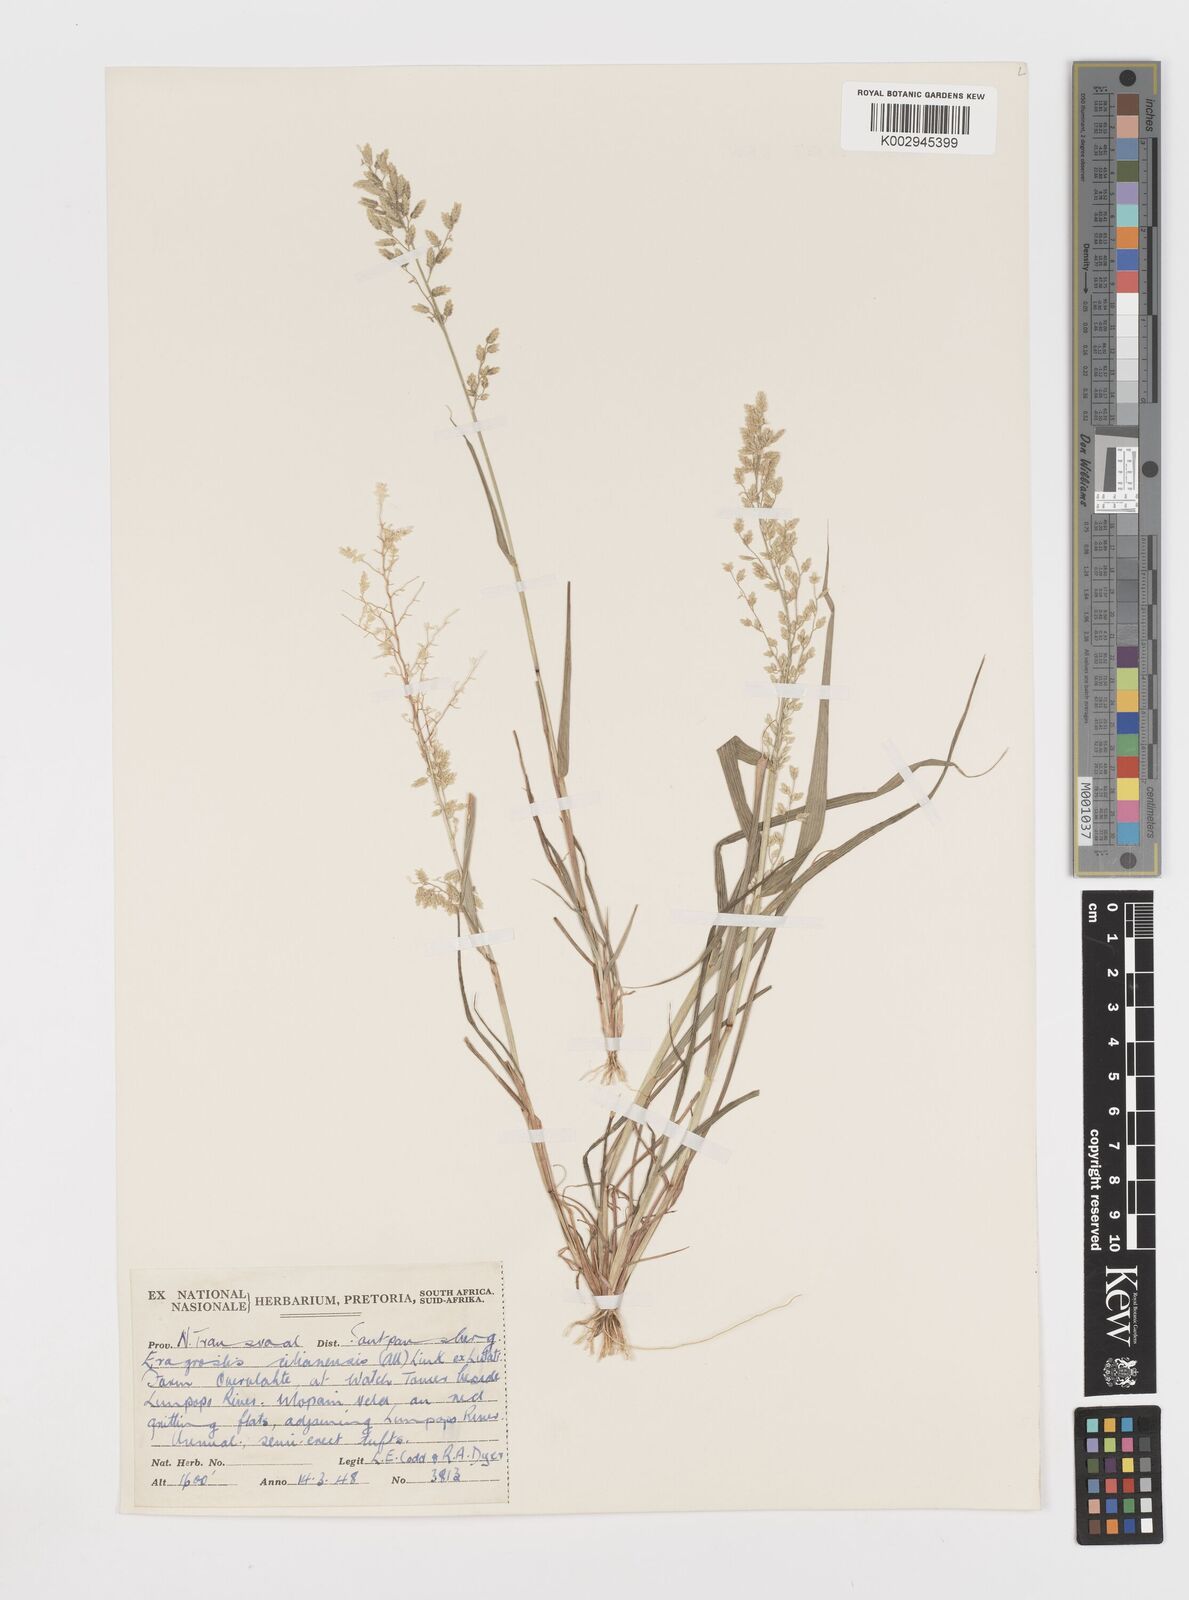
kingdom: Plantae
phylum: Tracheophyta
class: Liliopsida
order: Poales
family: Poaceae
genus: Eragrostis
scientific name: Eragrostis cilianensis
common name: Stinkgrass
